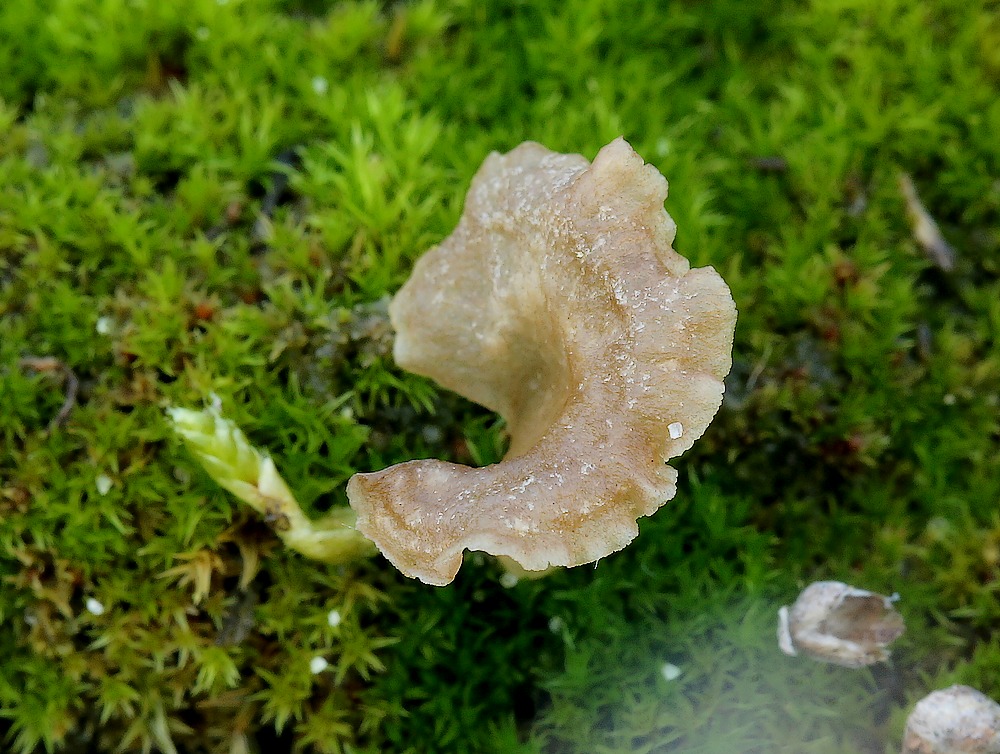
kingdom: Fungi
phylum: Basidiomycota
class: Agaricomycetes
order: Agaricales
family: Hygrophoraceae
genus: Arrhenia
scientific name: Arrhenia spathulata
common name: skæv fontænehat
